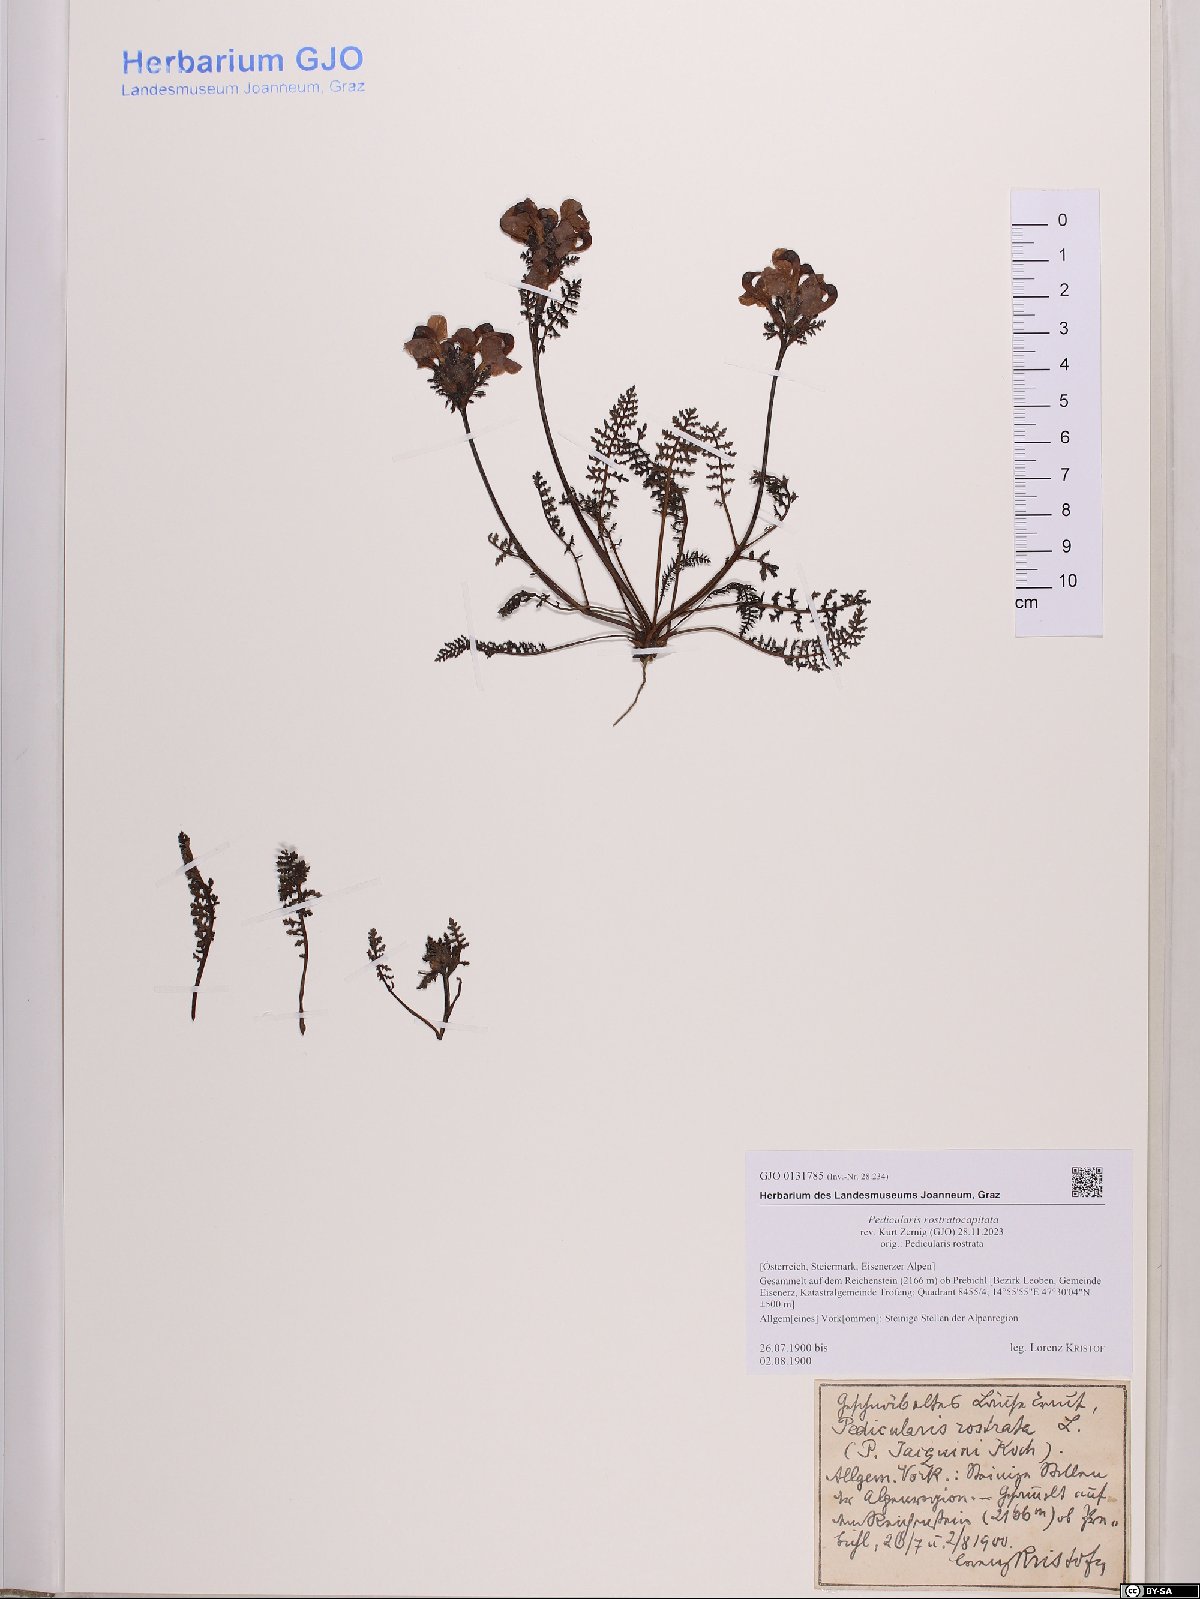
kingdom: Plantae
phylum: Tracheophyta
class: Magnoliopsida
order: Lamiales
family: Orobanchaceae
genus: Pedicularis
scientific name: Pedicularis rostratocapitata
